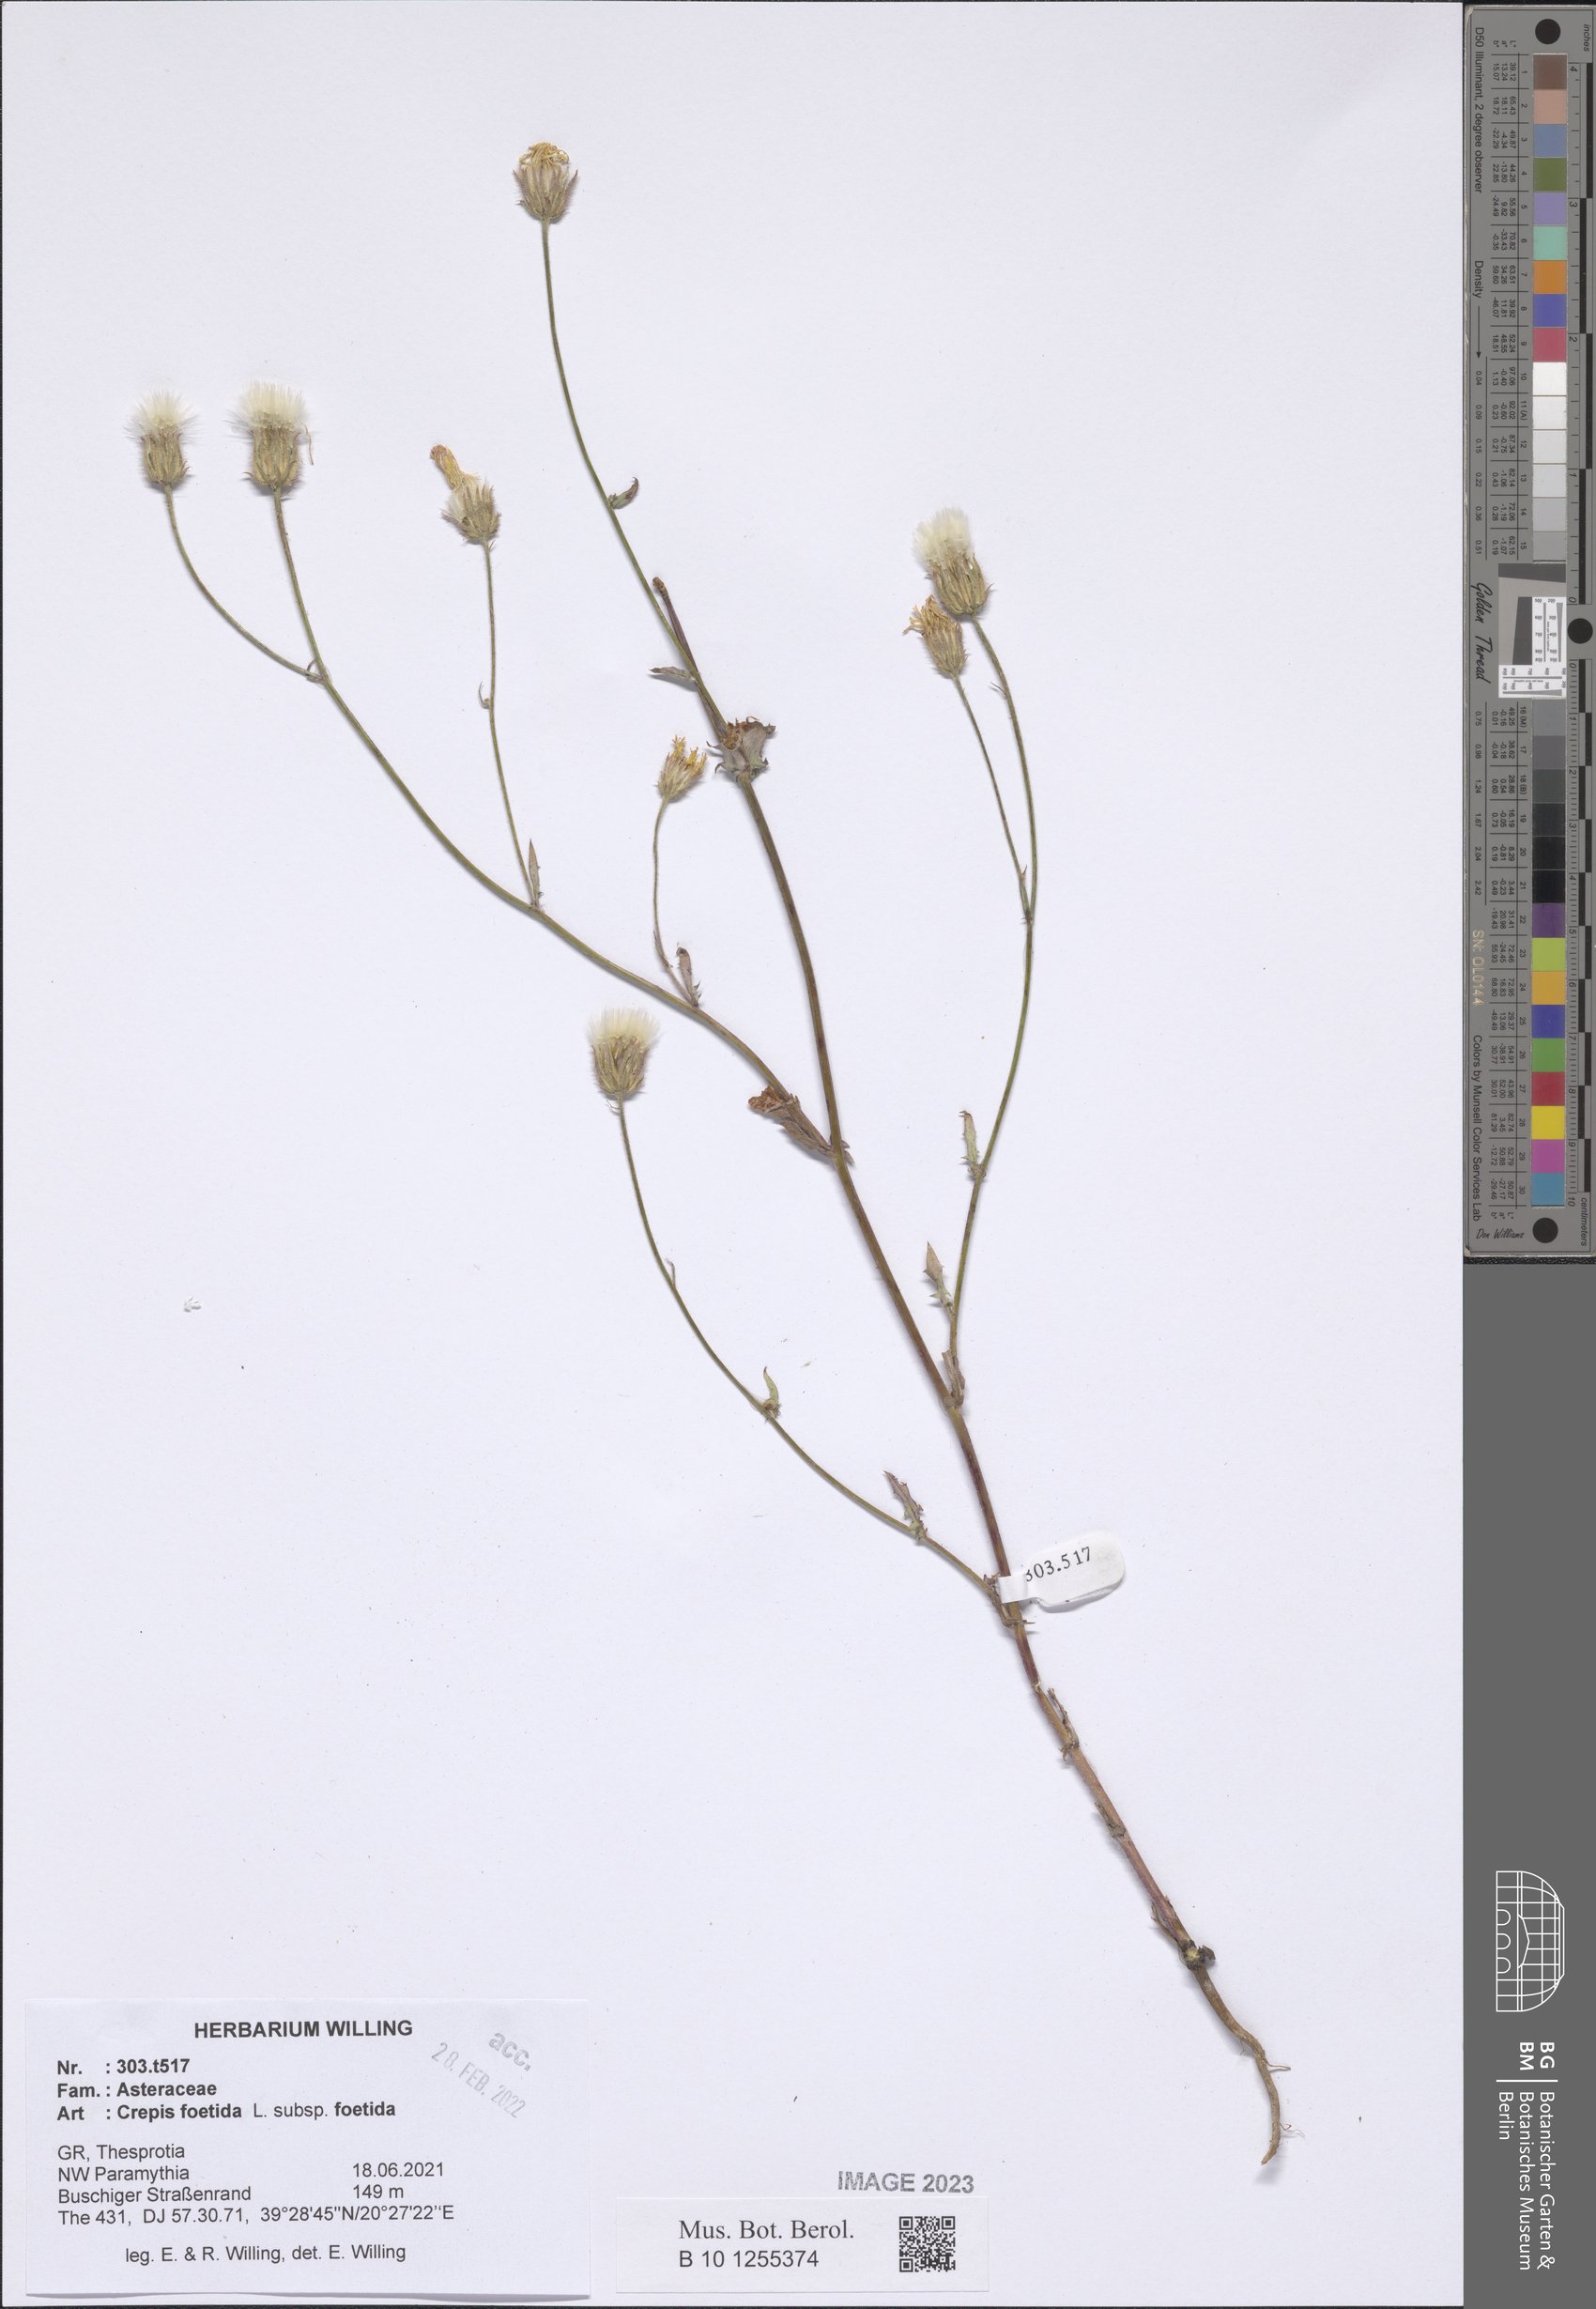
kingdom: Plantae
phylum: Tracheophyta
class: Magnoliopsida
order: Asterales
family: Asteraceae
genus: Crepis
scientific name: Crepis foetida
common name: Stinking hawk's-beard
